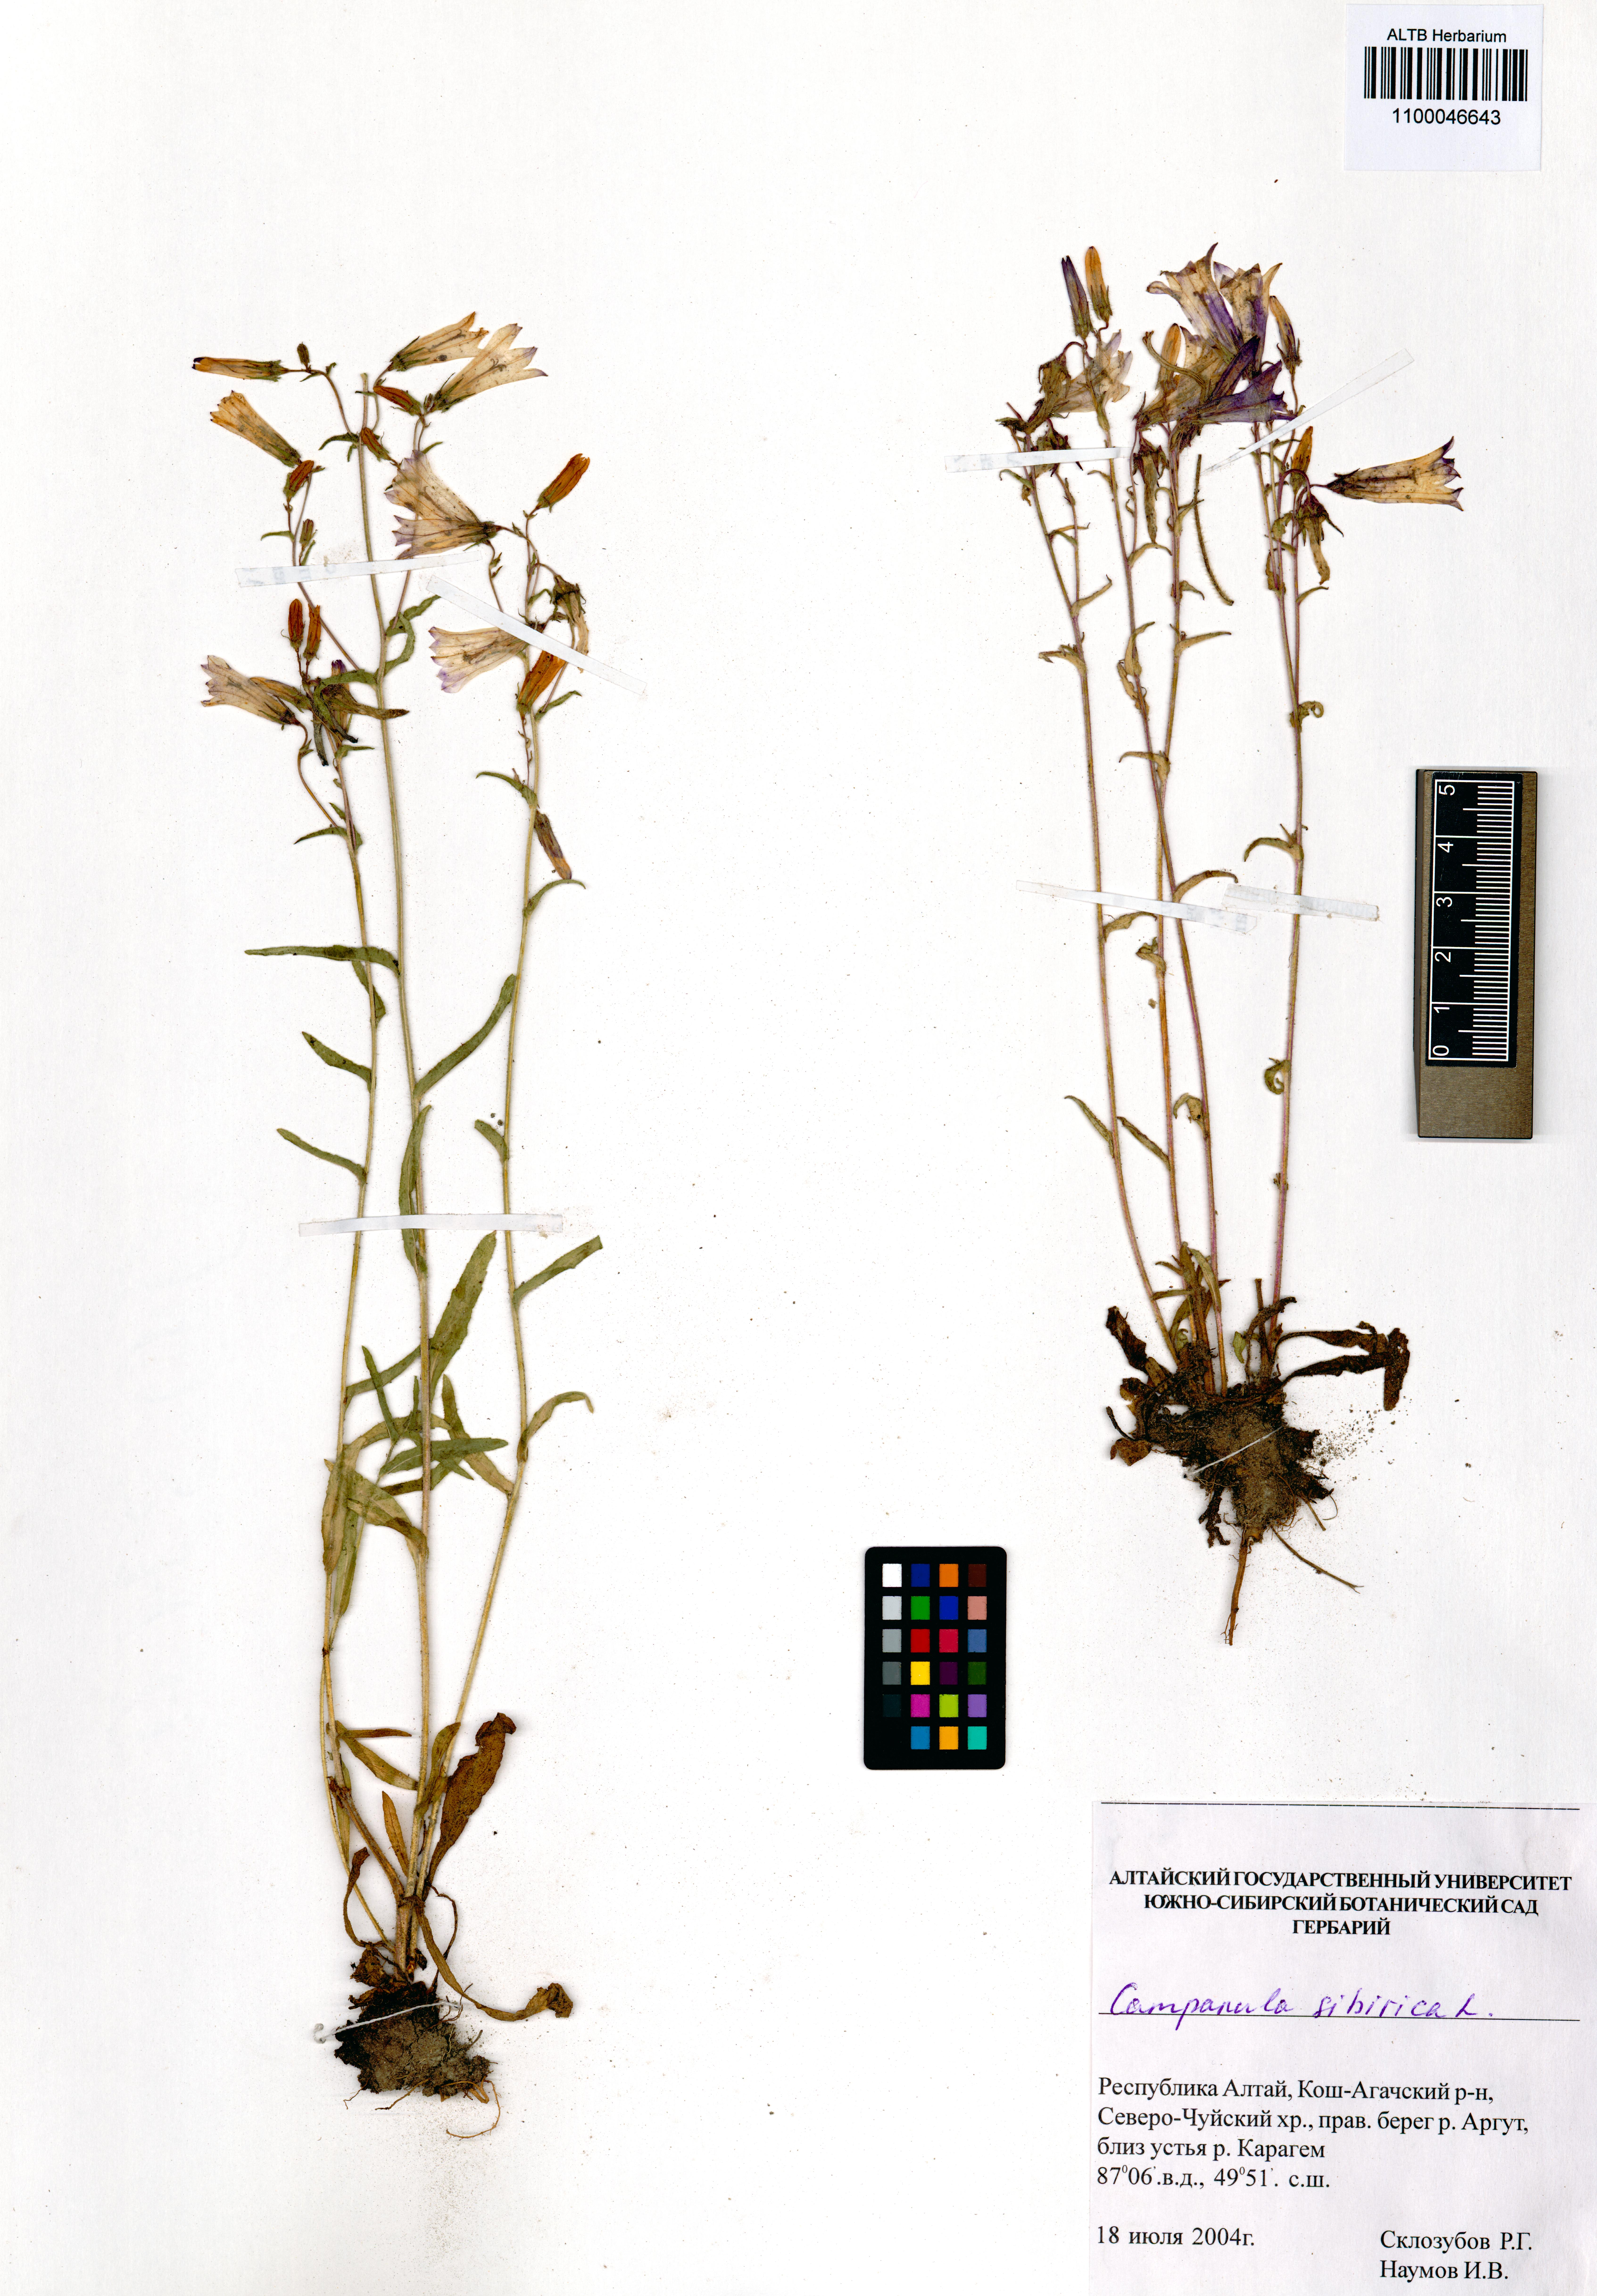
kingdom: Plantae
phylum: Tracheophyta
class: Magnoliopsida
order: Asterales
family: Campanulaceae
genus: Campanula
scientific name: Campanula sibirica
